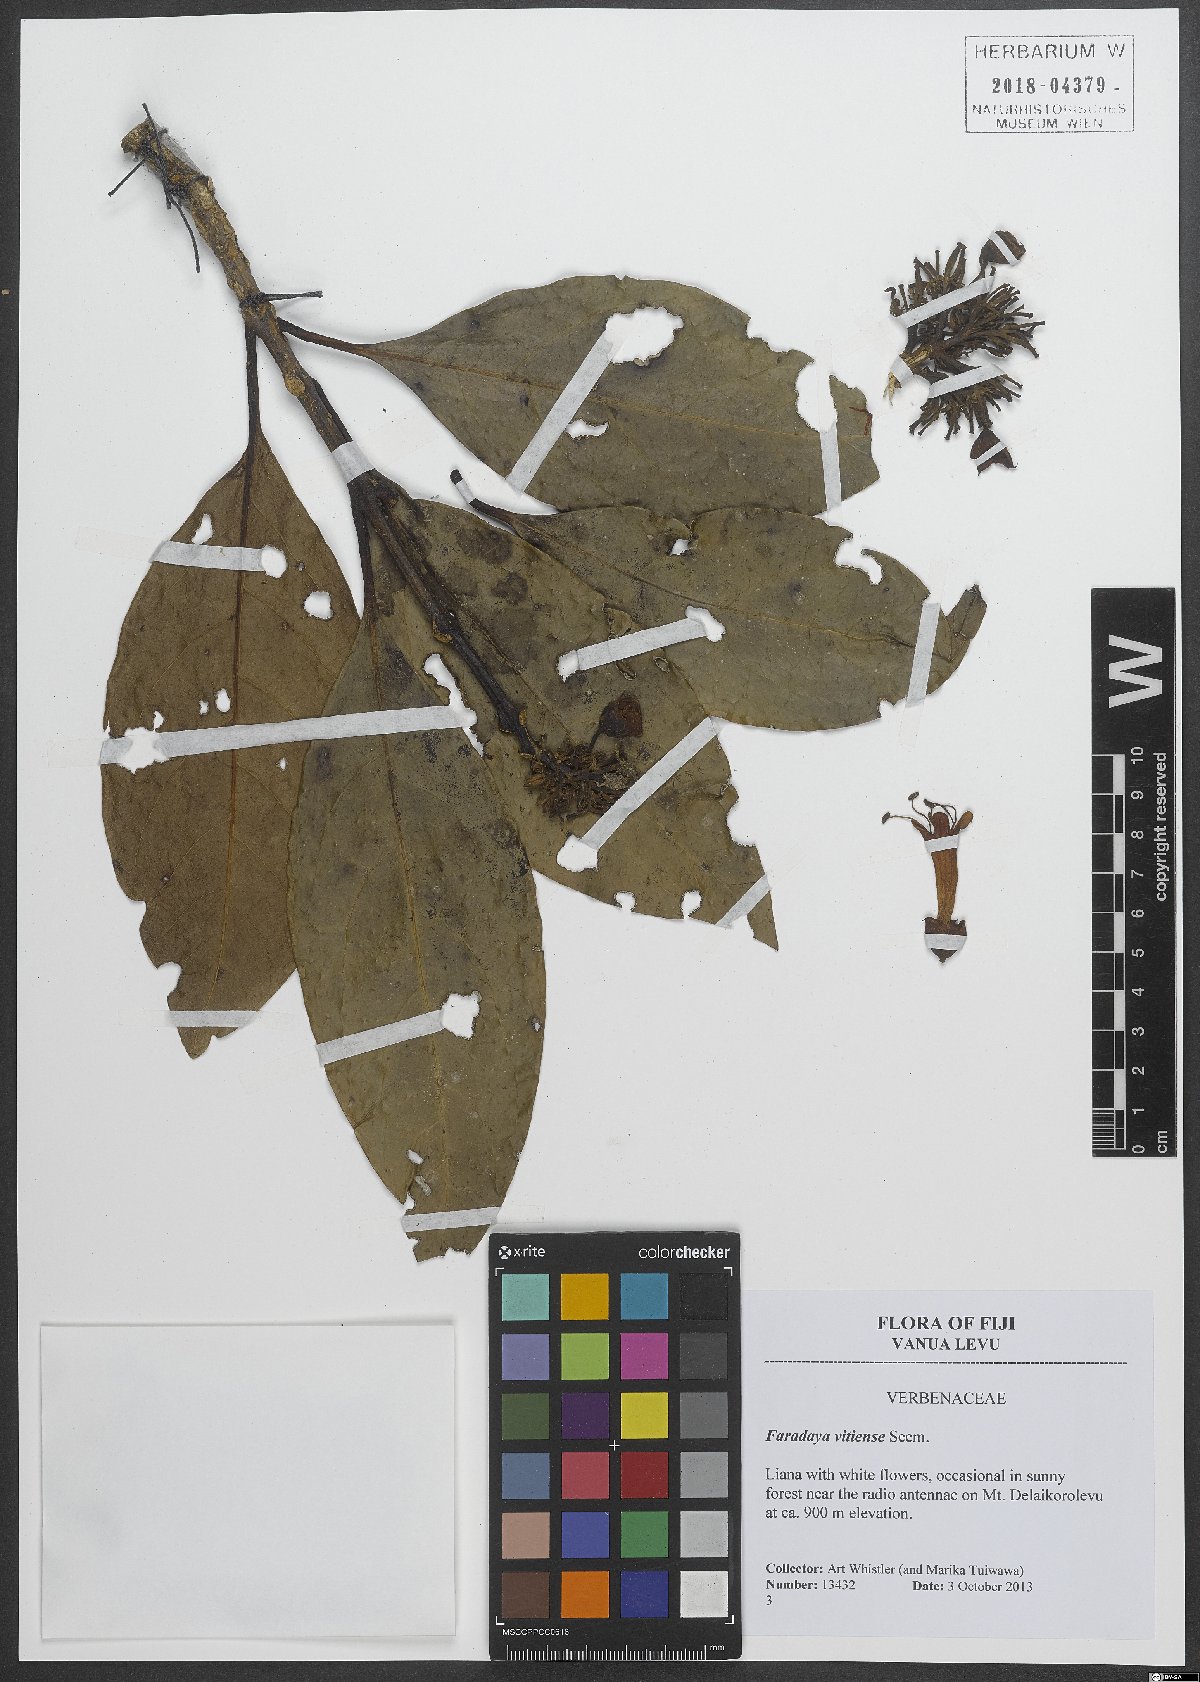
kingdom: Plantae
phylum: Tracheophyta
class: Magnoliopsida
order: Lamiales
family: Lamiaceae
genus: Oxera
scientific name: Oxera amicorum
